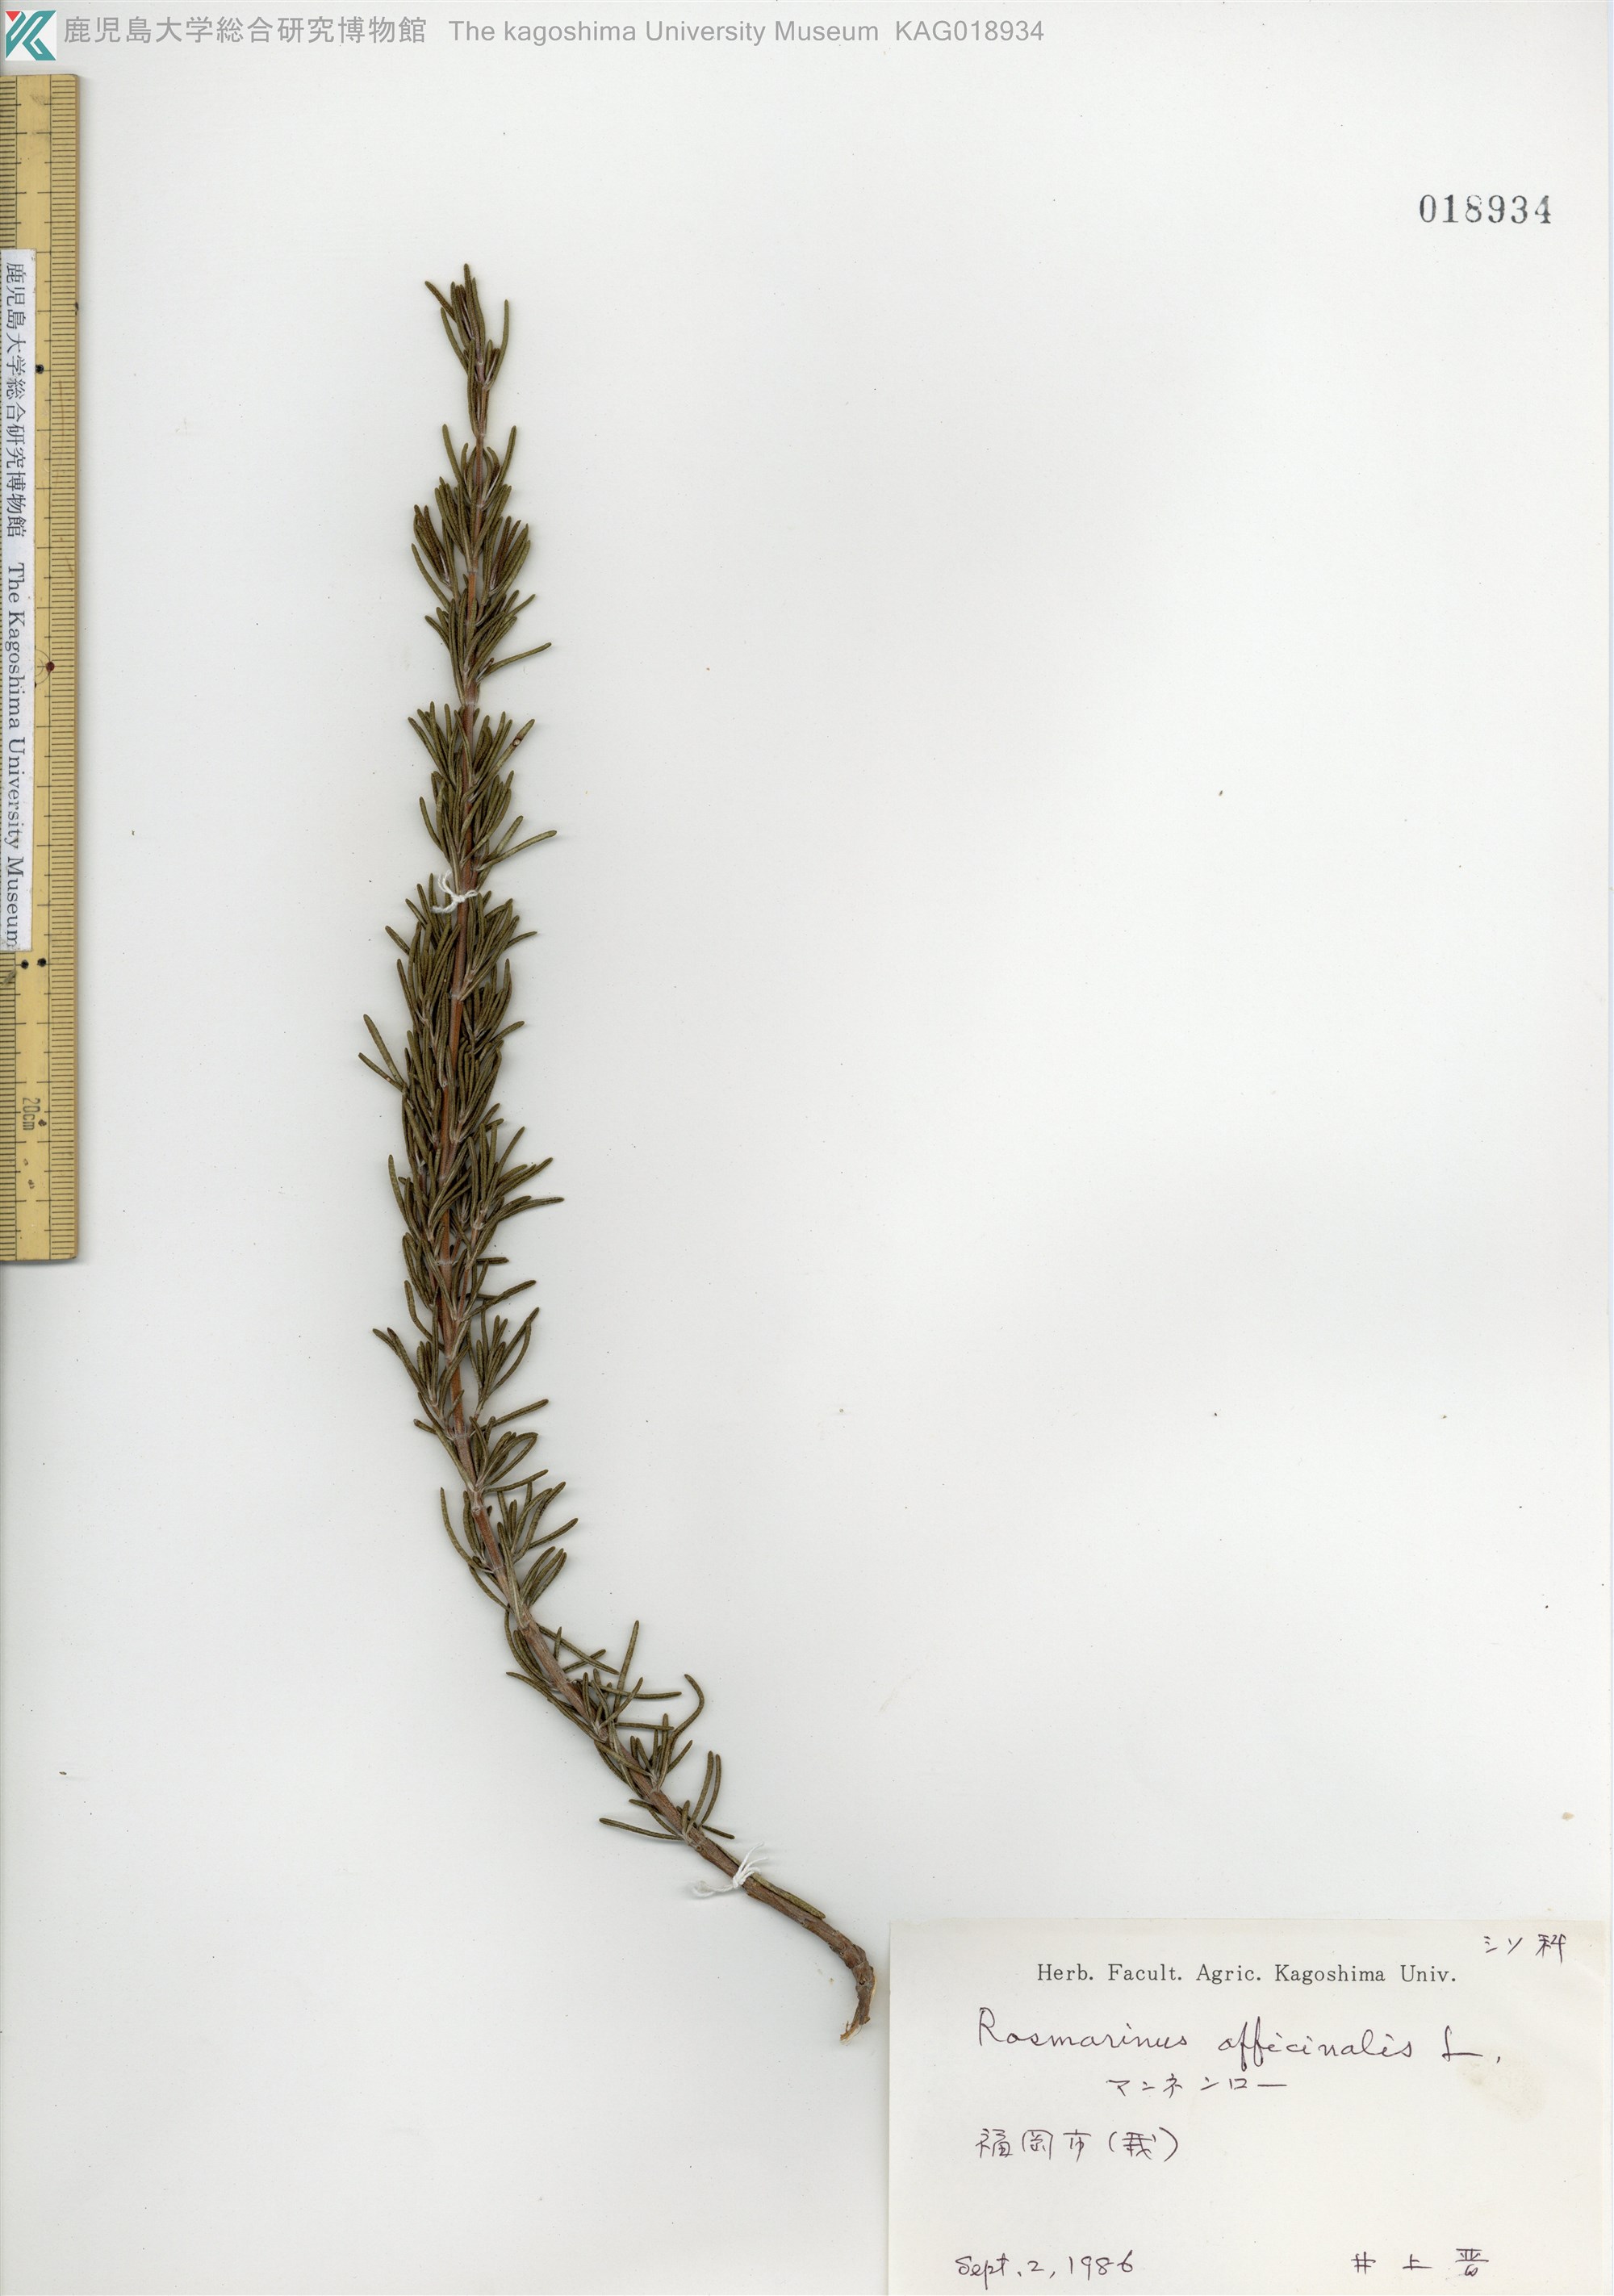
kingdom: Plantae
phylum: Tracheophyta
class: Magnoliopsida
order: Lamiales
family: Lamiaceae
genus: Salvia
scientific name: Salvia rosmarinus
